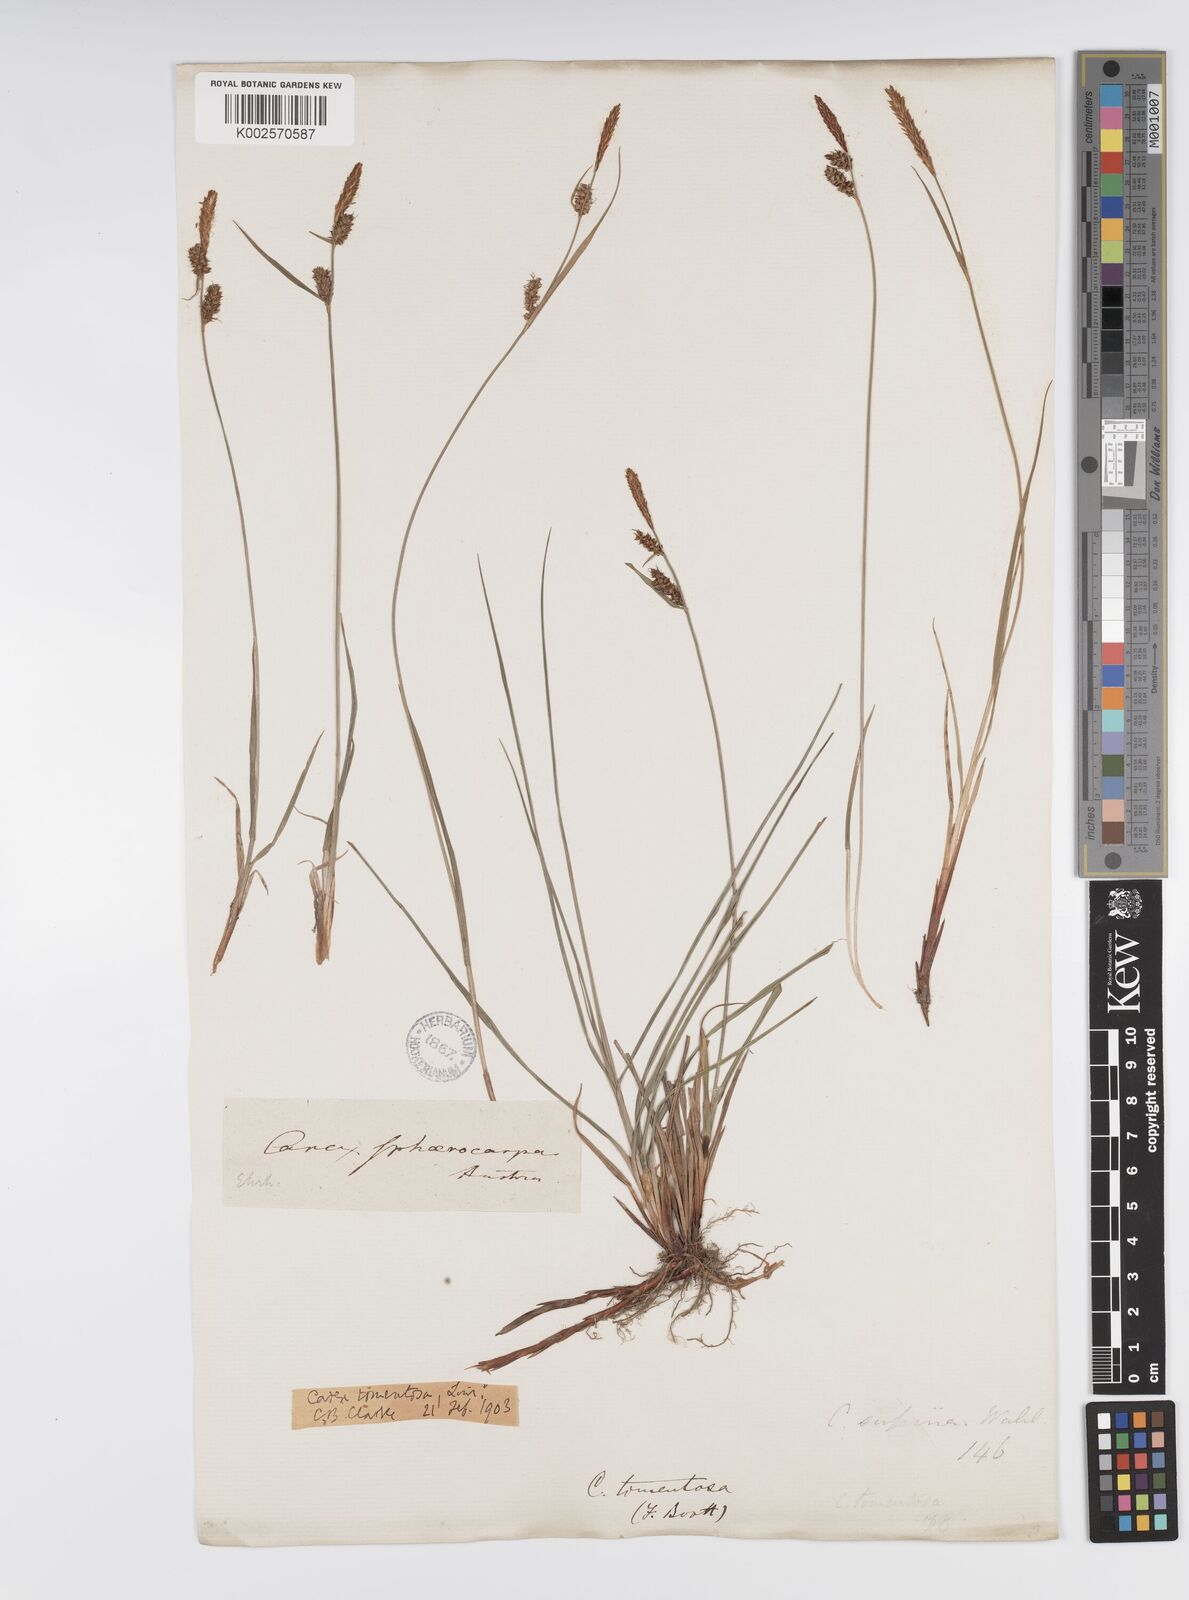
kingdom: Plantae
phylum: Tracheophyta
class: Liliopsida
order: Poales
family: Cyperaceae
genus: Carex
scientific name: Carex montana
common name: Soft-leaved sedge
